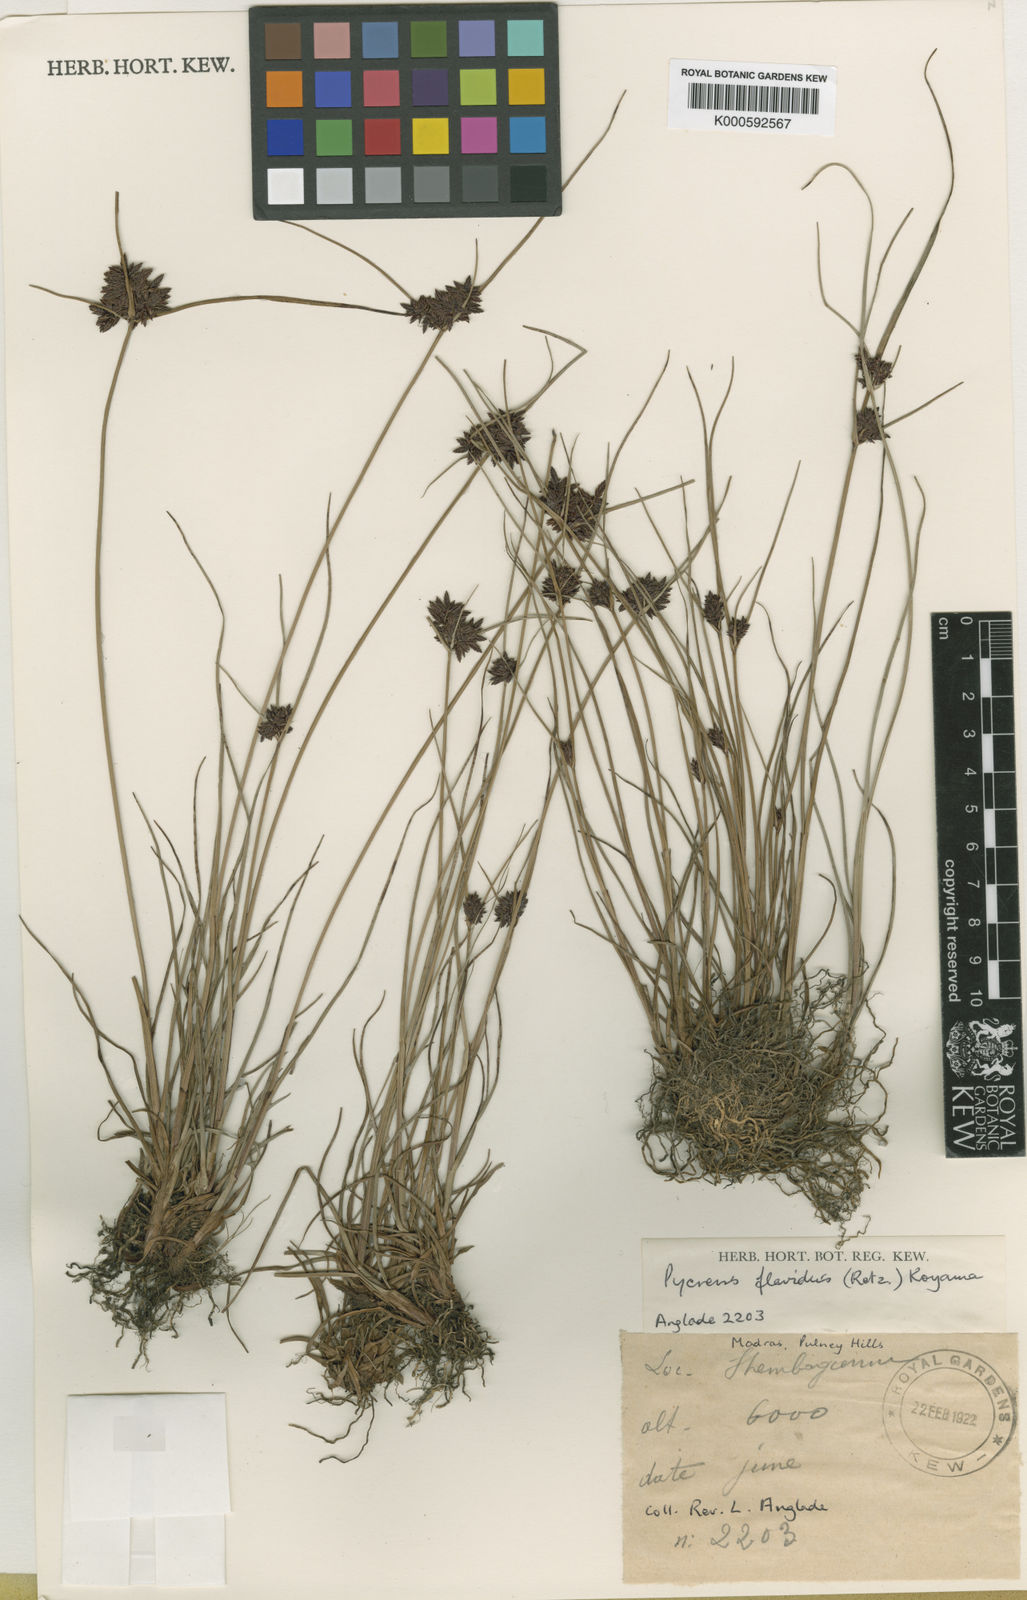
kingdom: Plantae
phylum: Tracheophyta
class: Liliopsida
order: Poales
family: Cyperaceae
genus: Cyperus
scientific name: Cyperus flavidus
